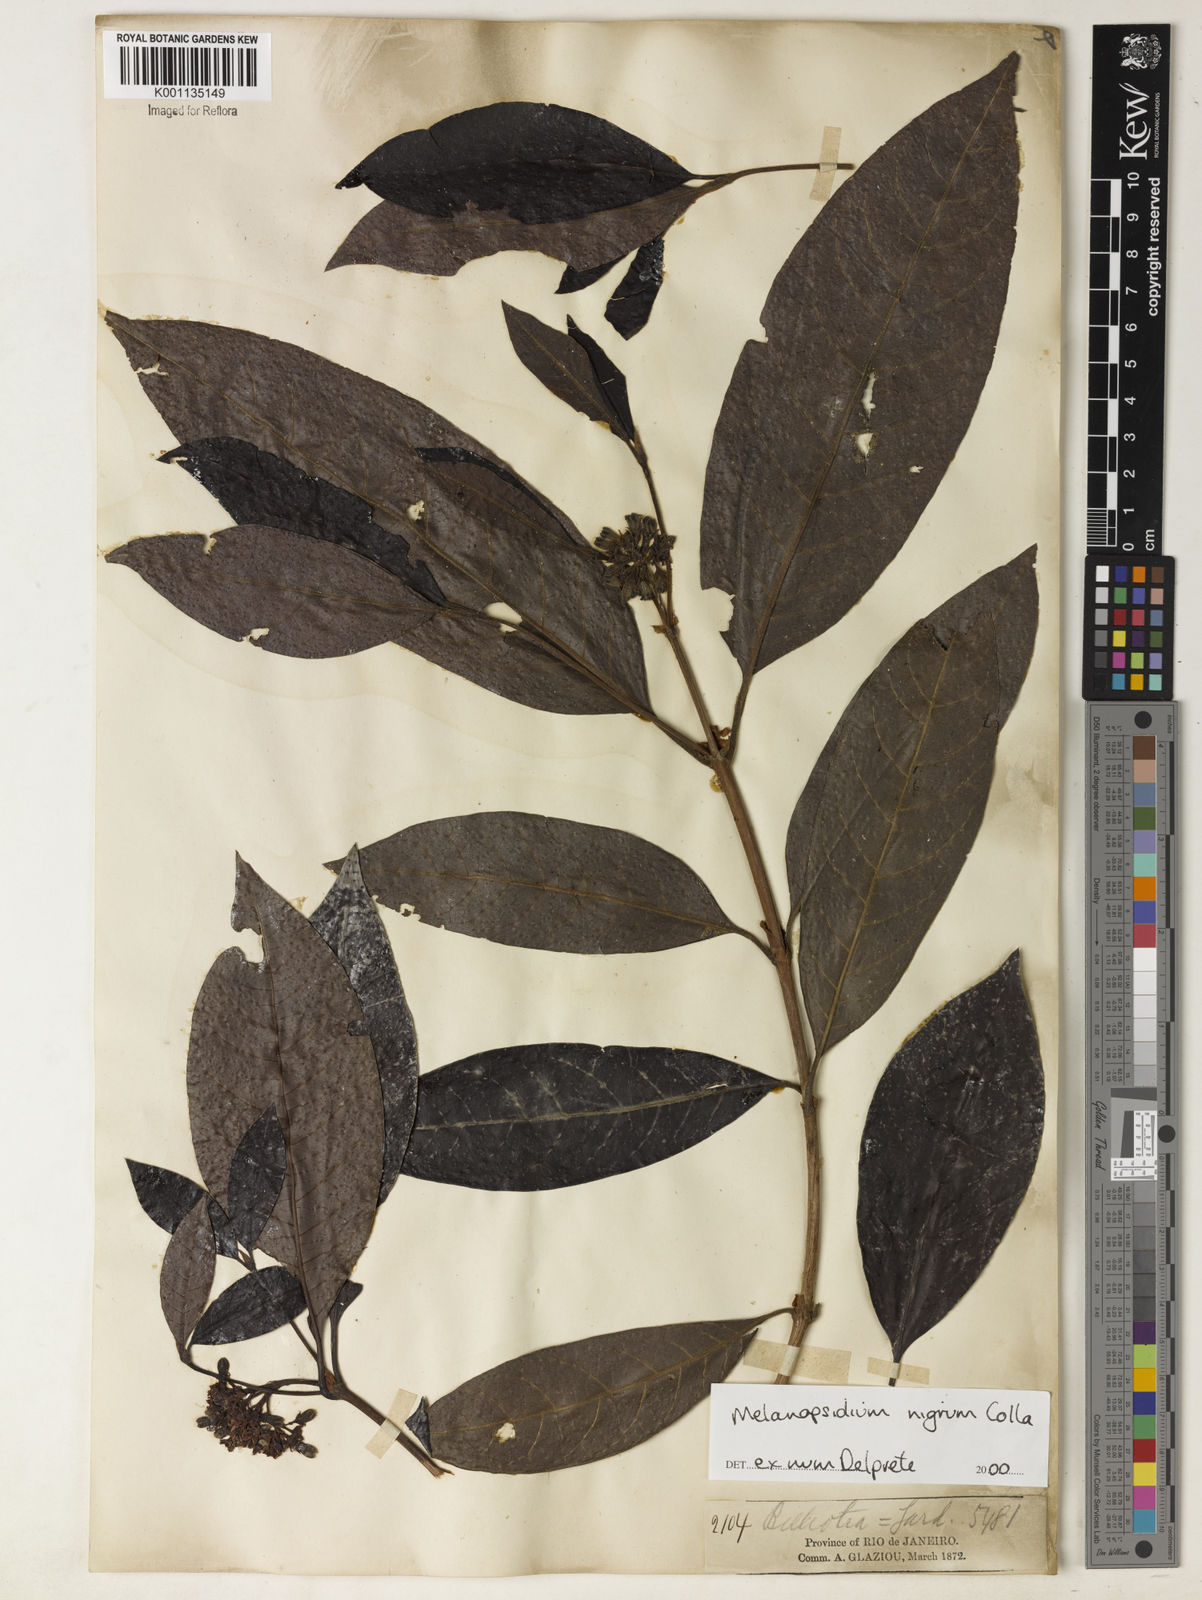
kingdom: Plantae
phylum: Tracheophyta
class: Magnoliopsida
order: Gentianales
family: Rubiaceae
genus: Melanopsidium
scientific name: Melanopsidium nigrum
